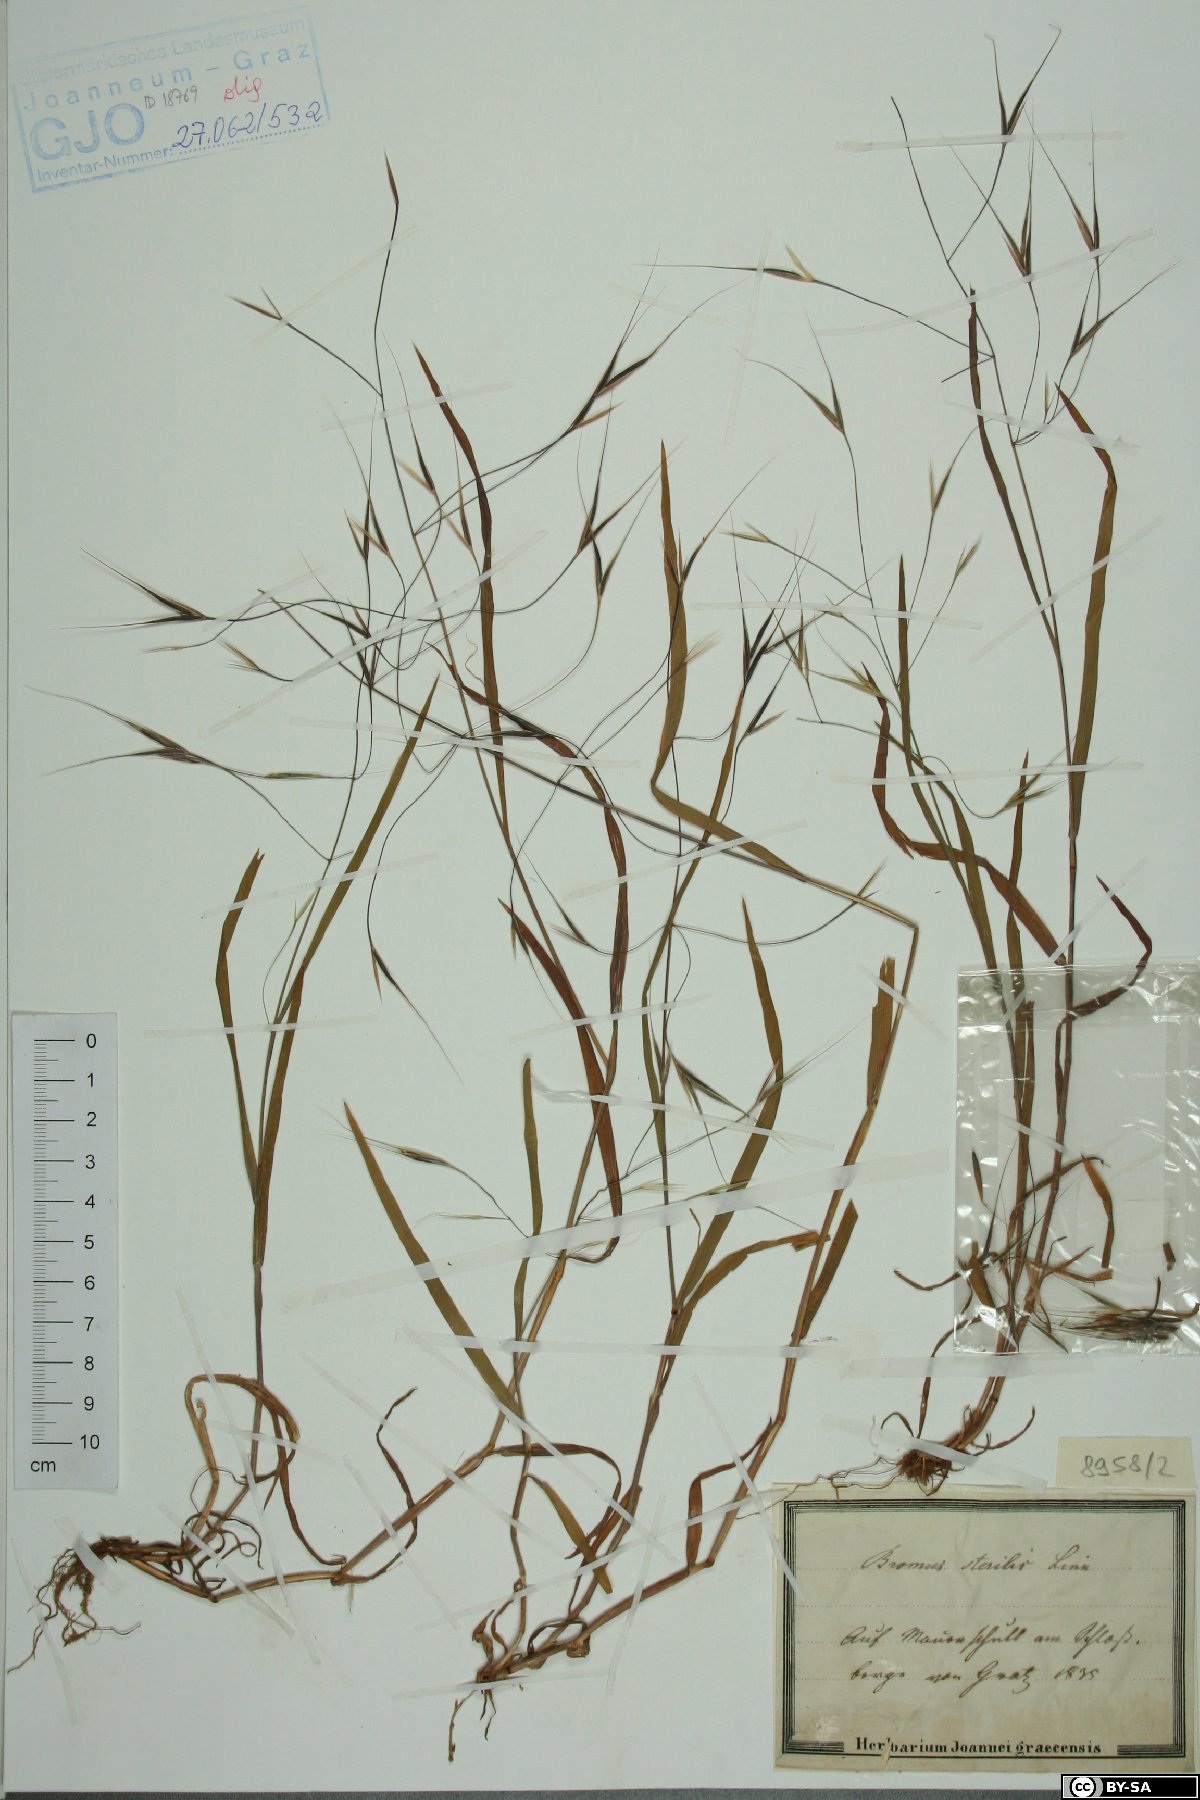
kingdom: Plantae
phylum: Tracheophyta
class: Liliopsida
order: Poales
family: Poaceae
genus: Bromus
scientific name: Bromus sterilis
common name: Poverty brome
